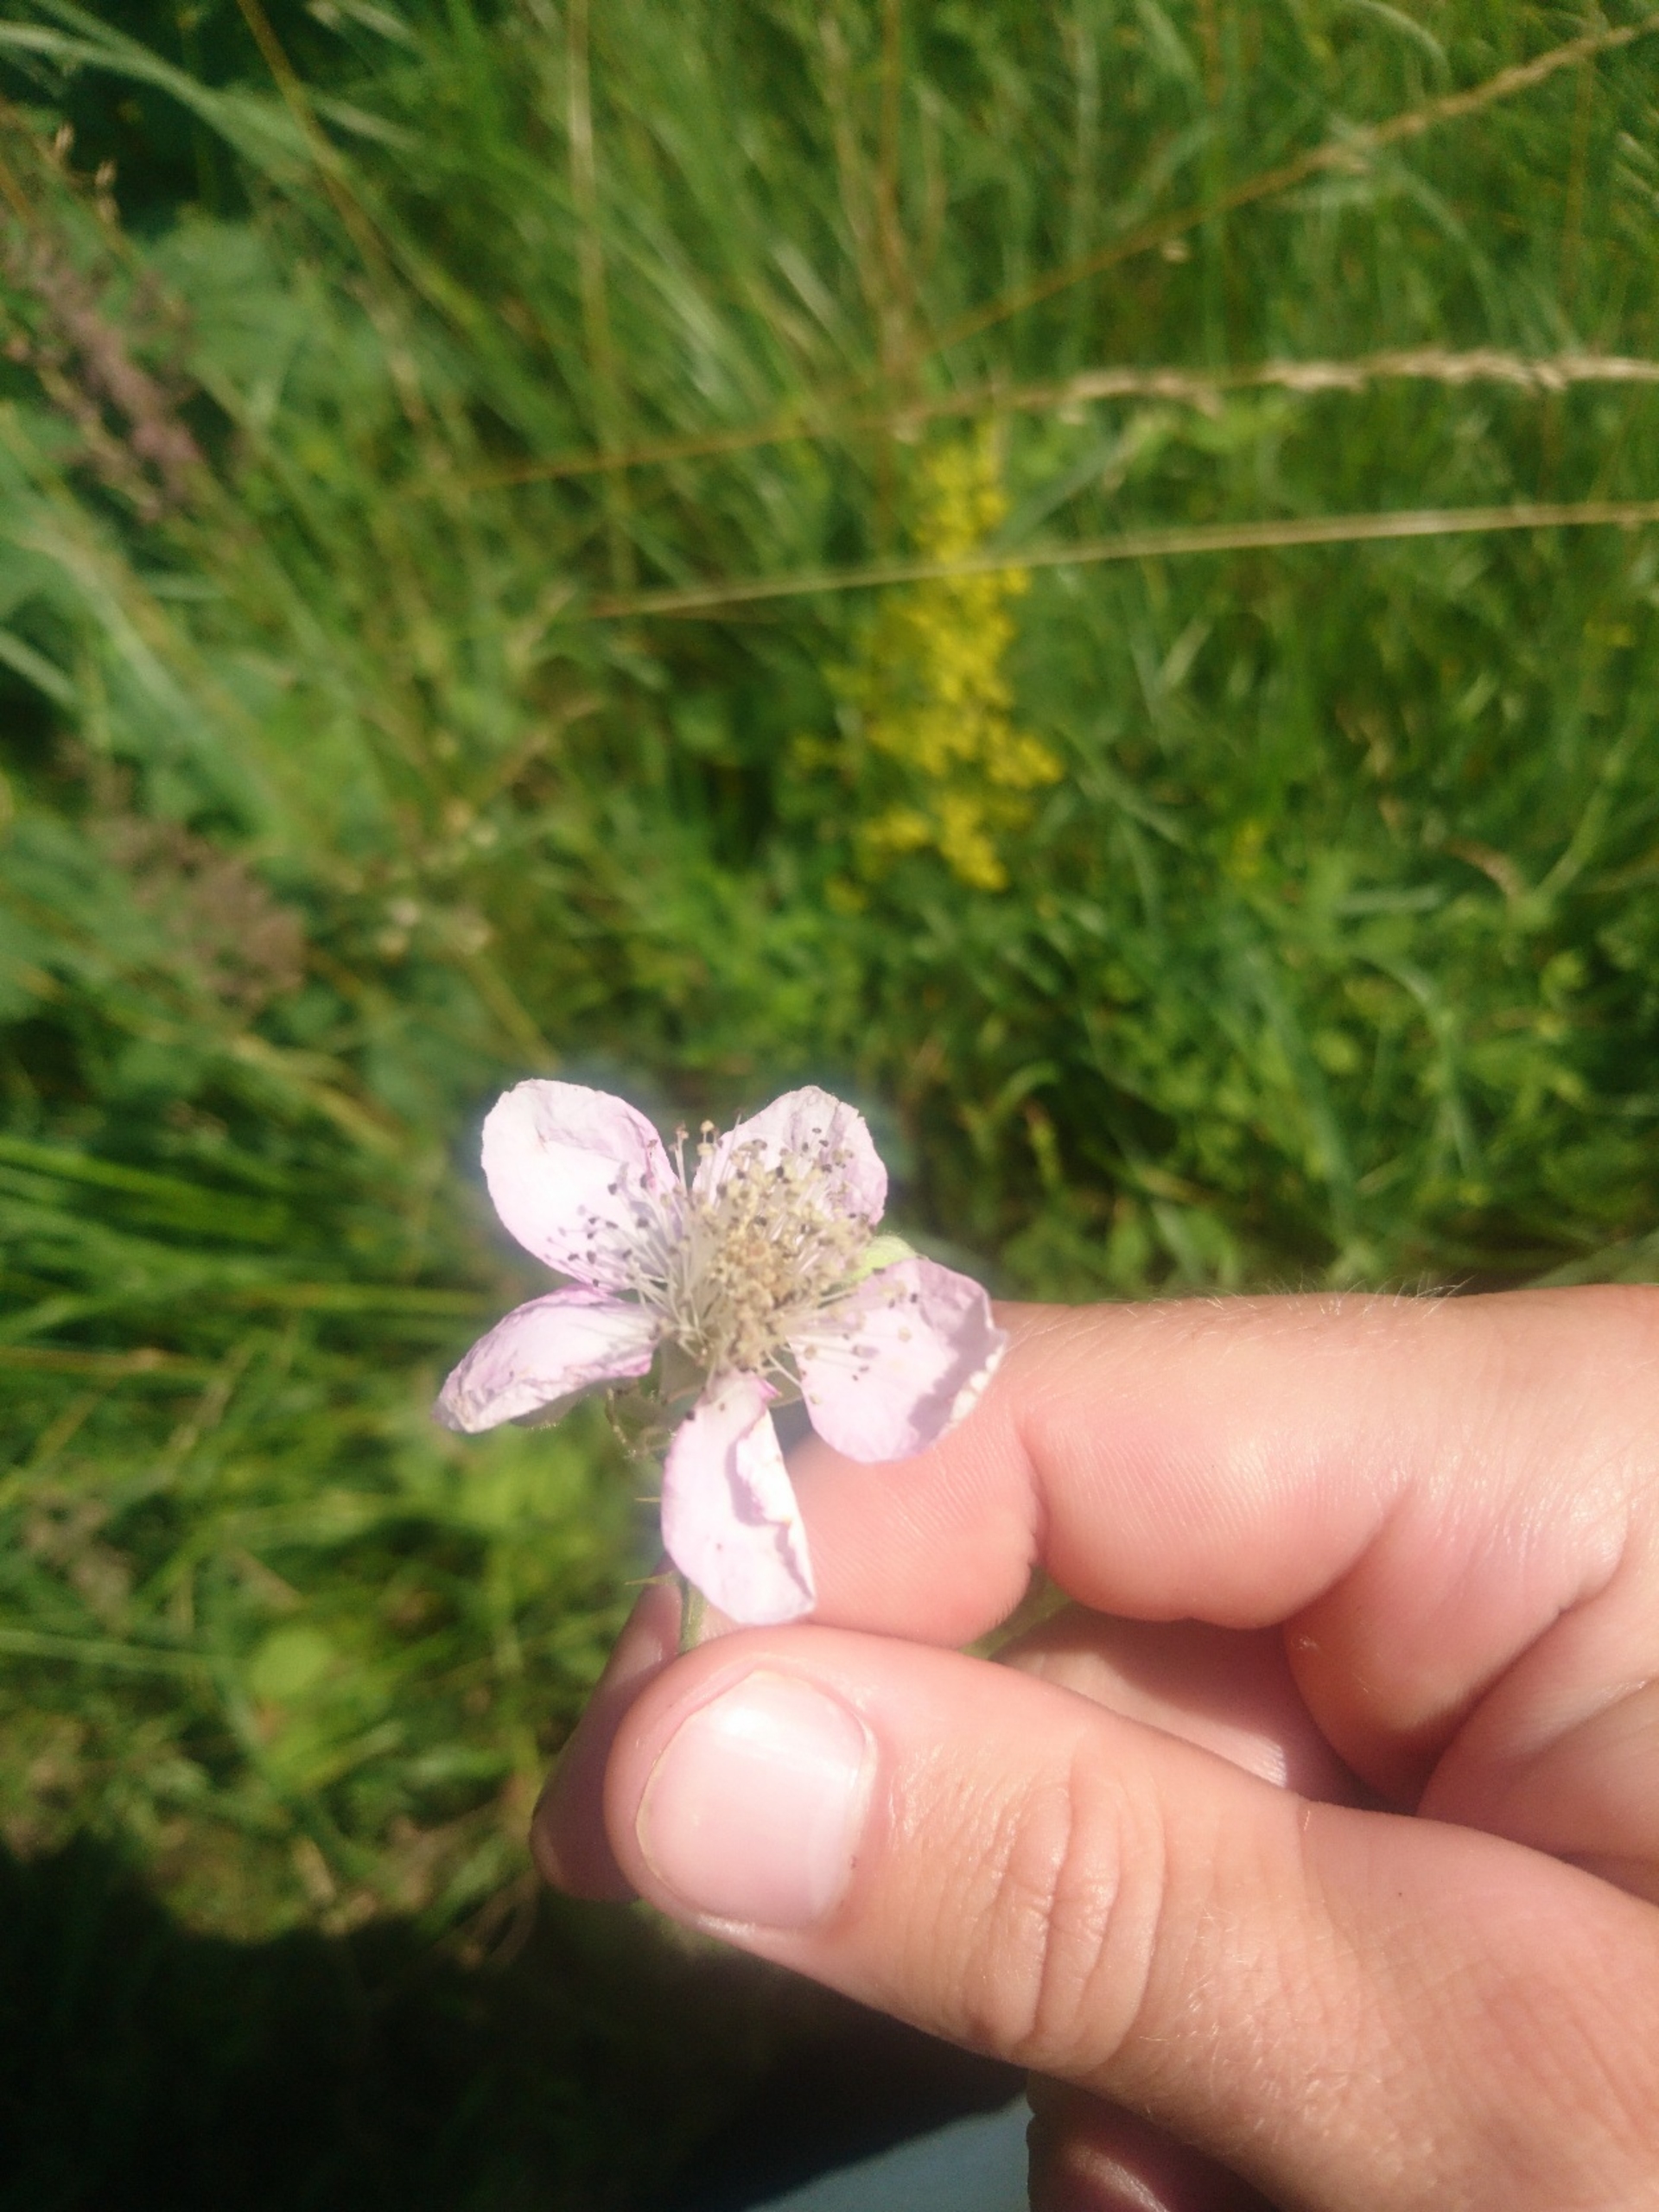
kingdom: Plantae
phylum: Tracheophyta
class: Magnoliopsida
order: Rosales
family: Rosaceae
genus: Rubus
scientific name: Rubus armeniacus
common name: Armensk brombær
